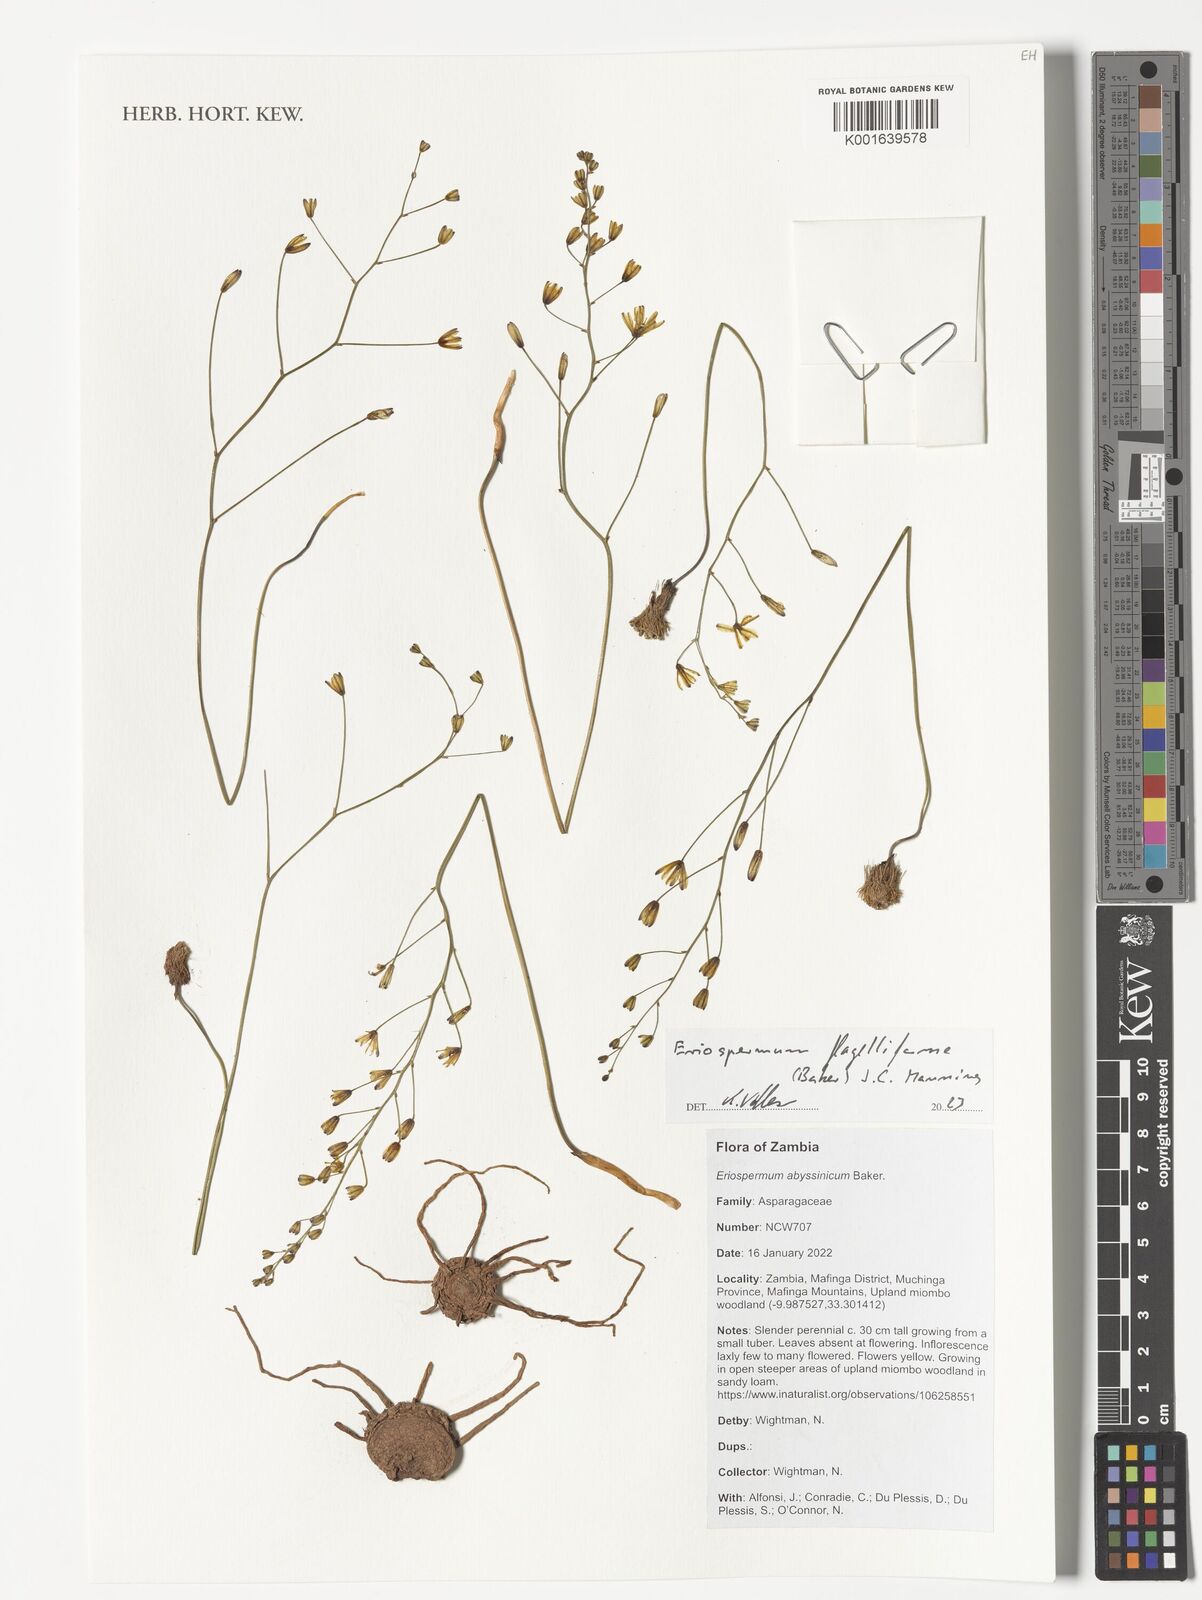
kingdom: Plantae
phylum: Tracheophyta
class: Liliopsida
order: Asparagales
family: Asparagaceae
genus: Eriospermum
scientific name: Eriospermum abyssinicum
